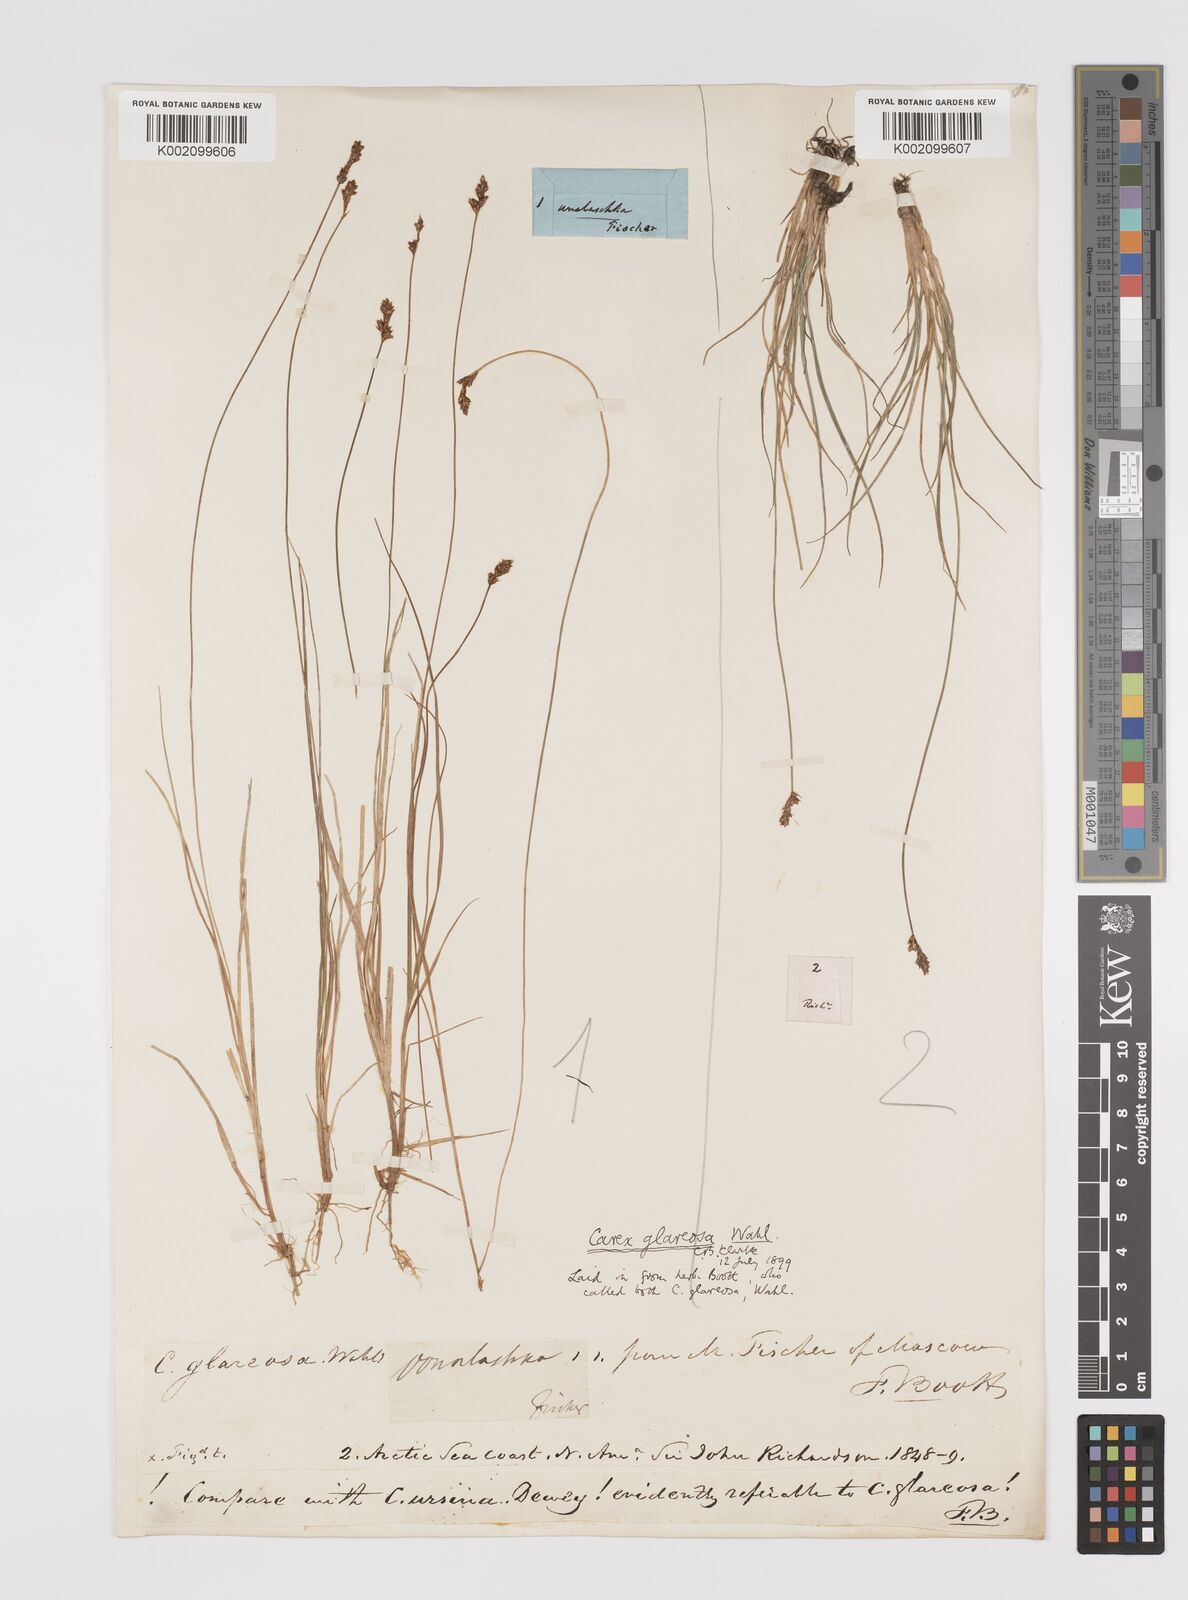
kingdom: Plantae
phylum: Tracheophyta
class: Liliopsida
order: Poales
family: Cyperaceae
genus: Carex
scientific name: Carex glareosa
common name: Clustered sedge
